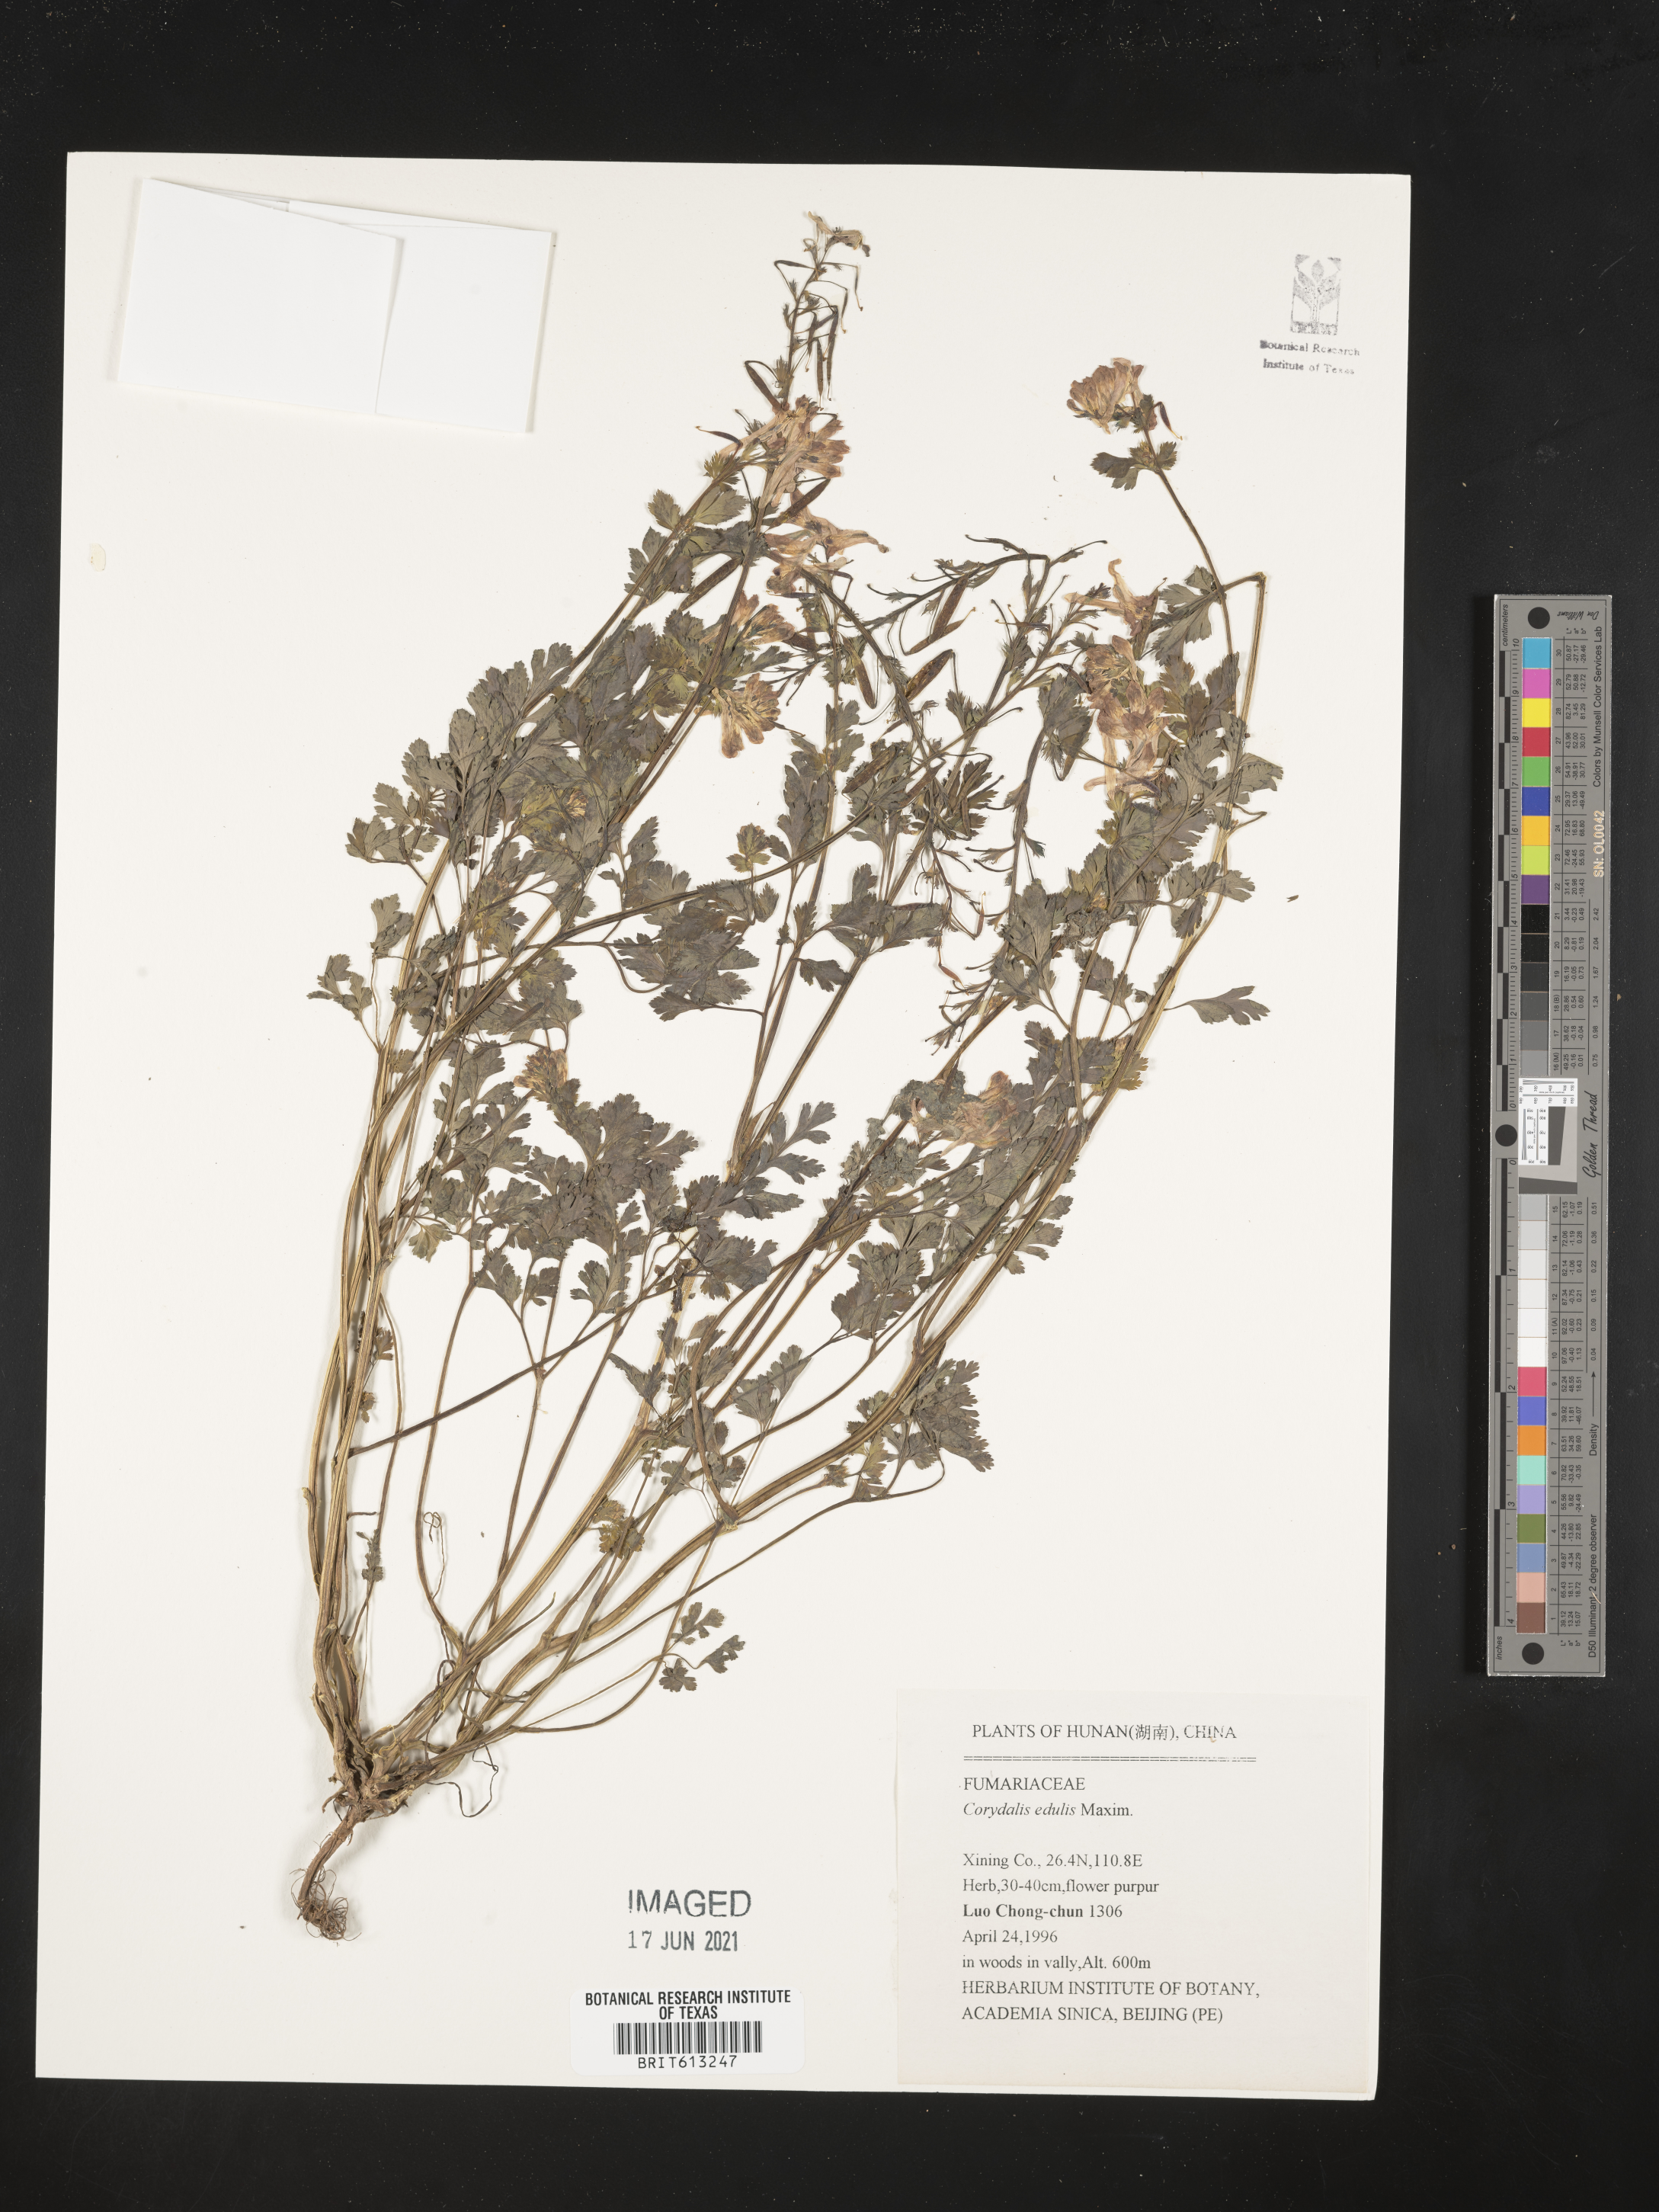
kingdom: Plantae
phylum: Tracheophyta
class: Magnoliopsida
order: Ranunculales
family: Papaveraceae
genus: Corydalis
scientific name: Corydalis edulis
